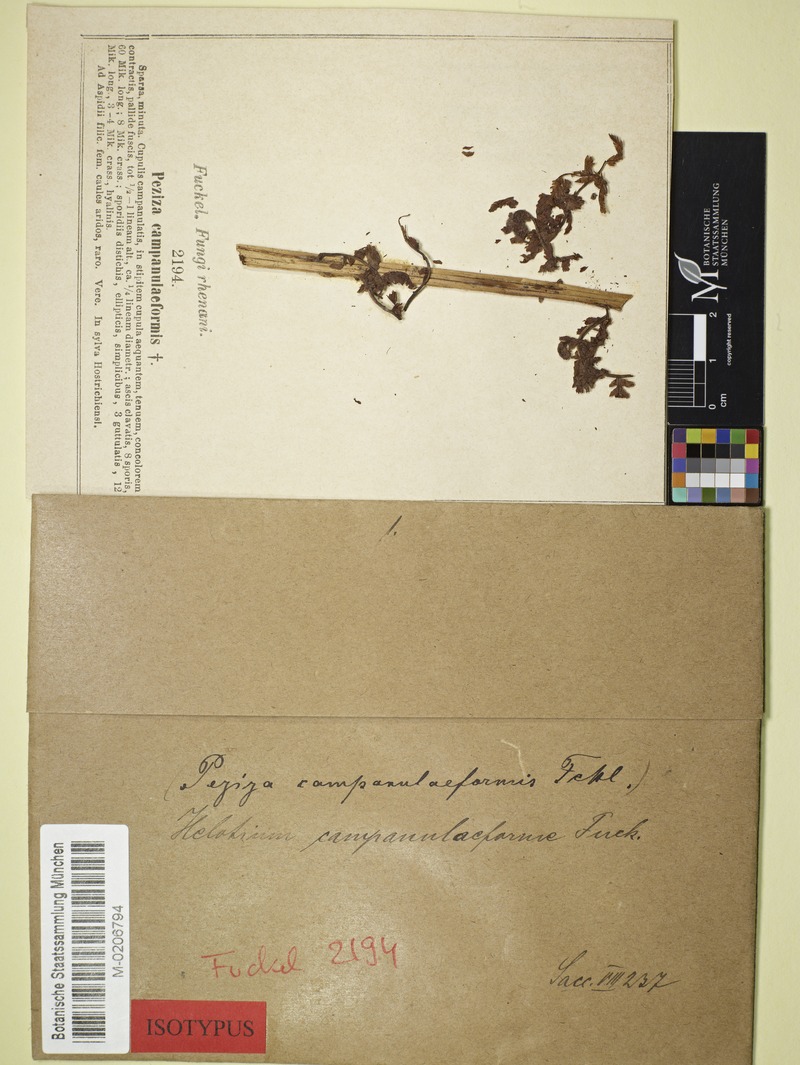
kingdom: Fungi
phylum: Ascomycota
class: Leotiomycetes
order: Helotiales
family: Pezizellaceae
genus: Allophylaria
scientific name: Allophylaria campanuliformis
